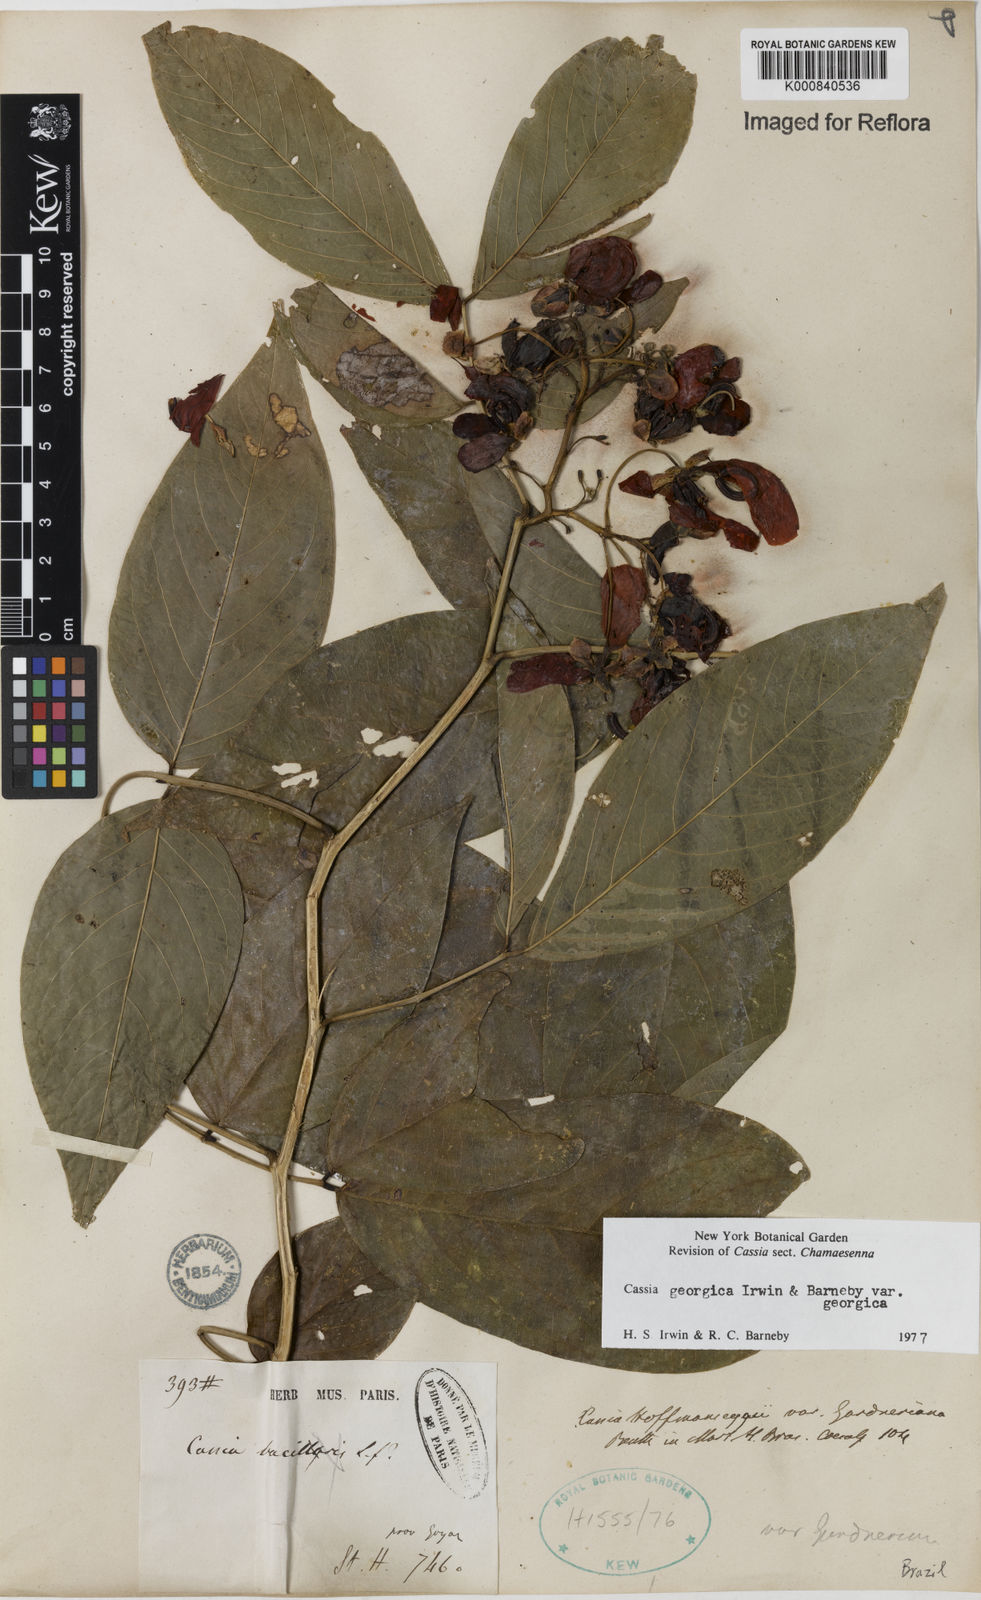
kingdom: Plantae
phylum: Tracheophyta
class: Magnoliopsida
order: Fabales
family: Fabaceae
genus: Senna
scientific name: Senna georgica
